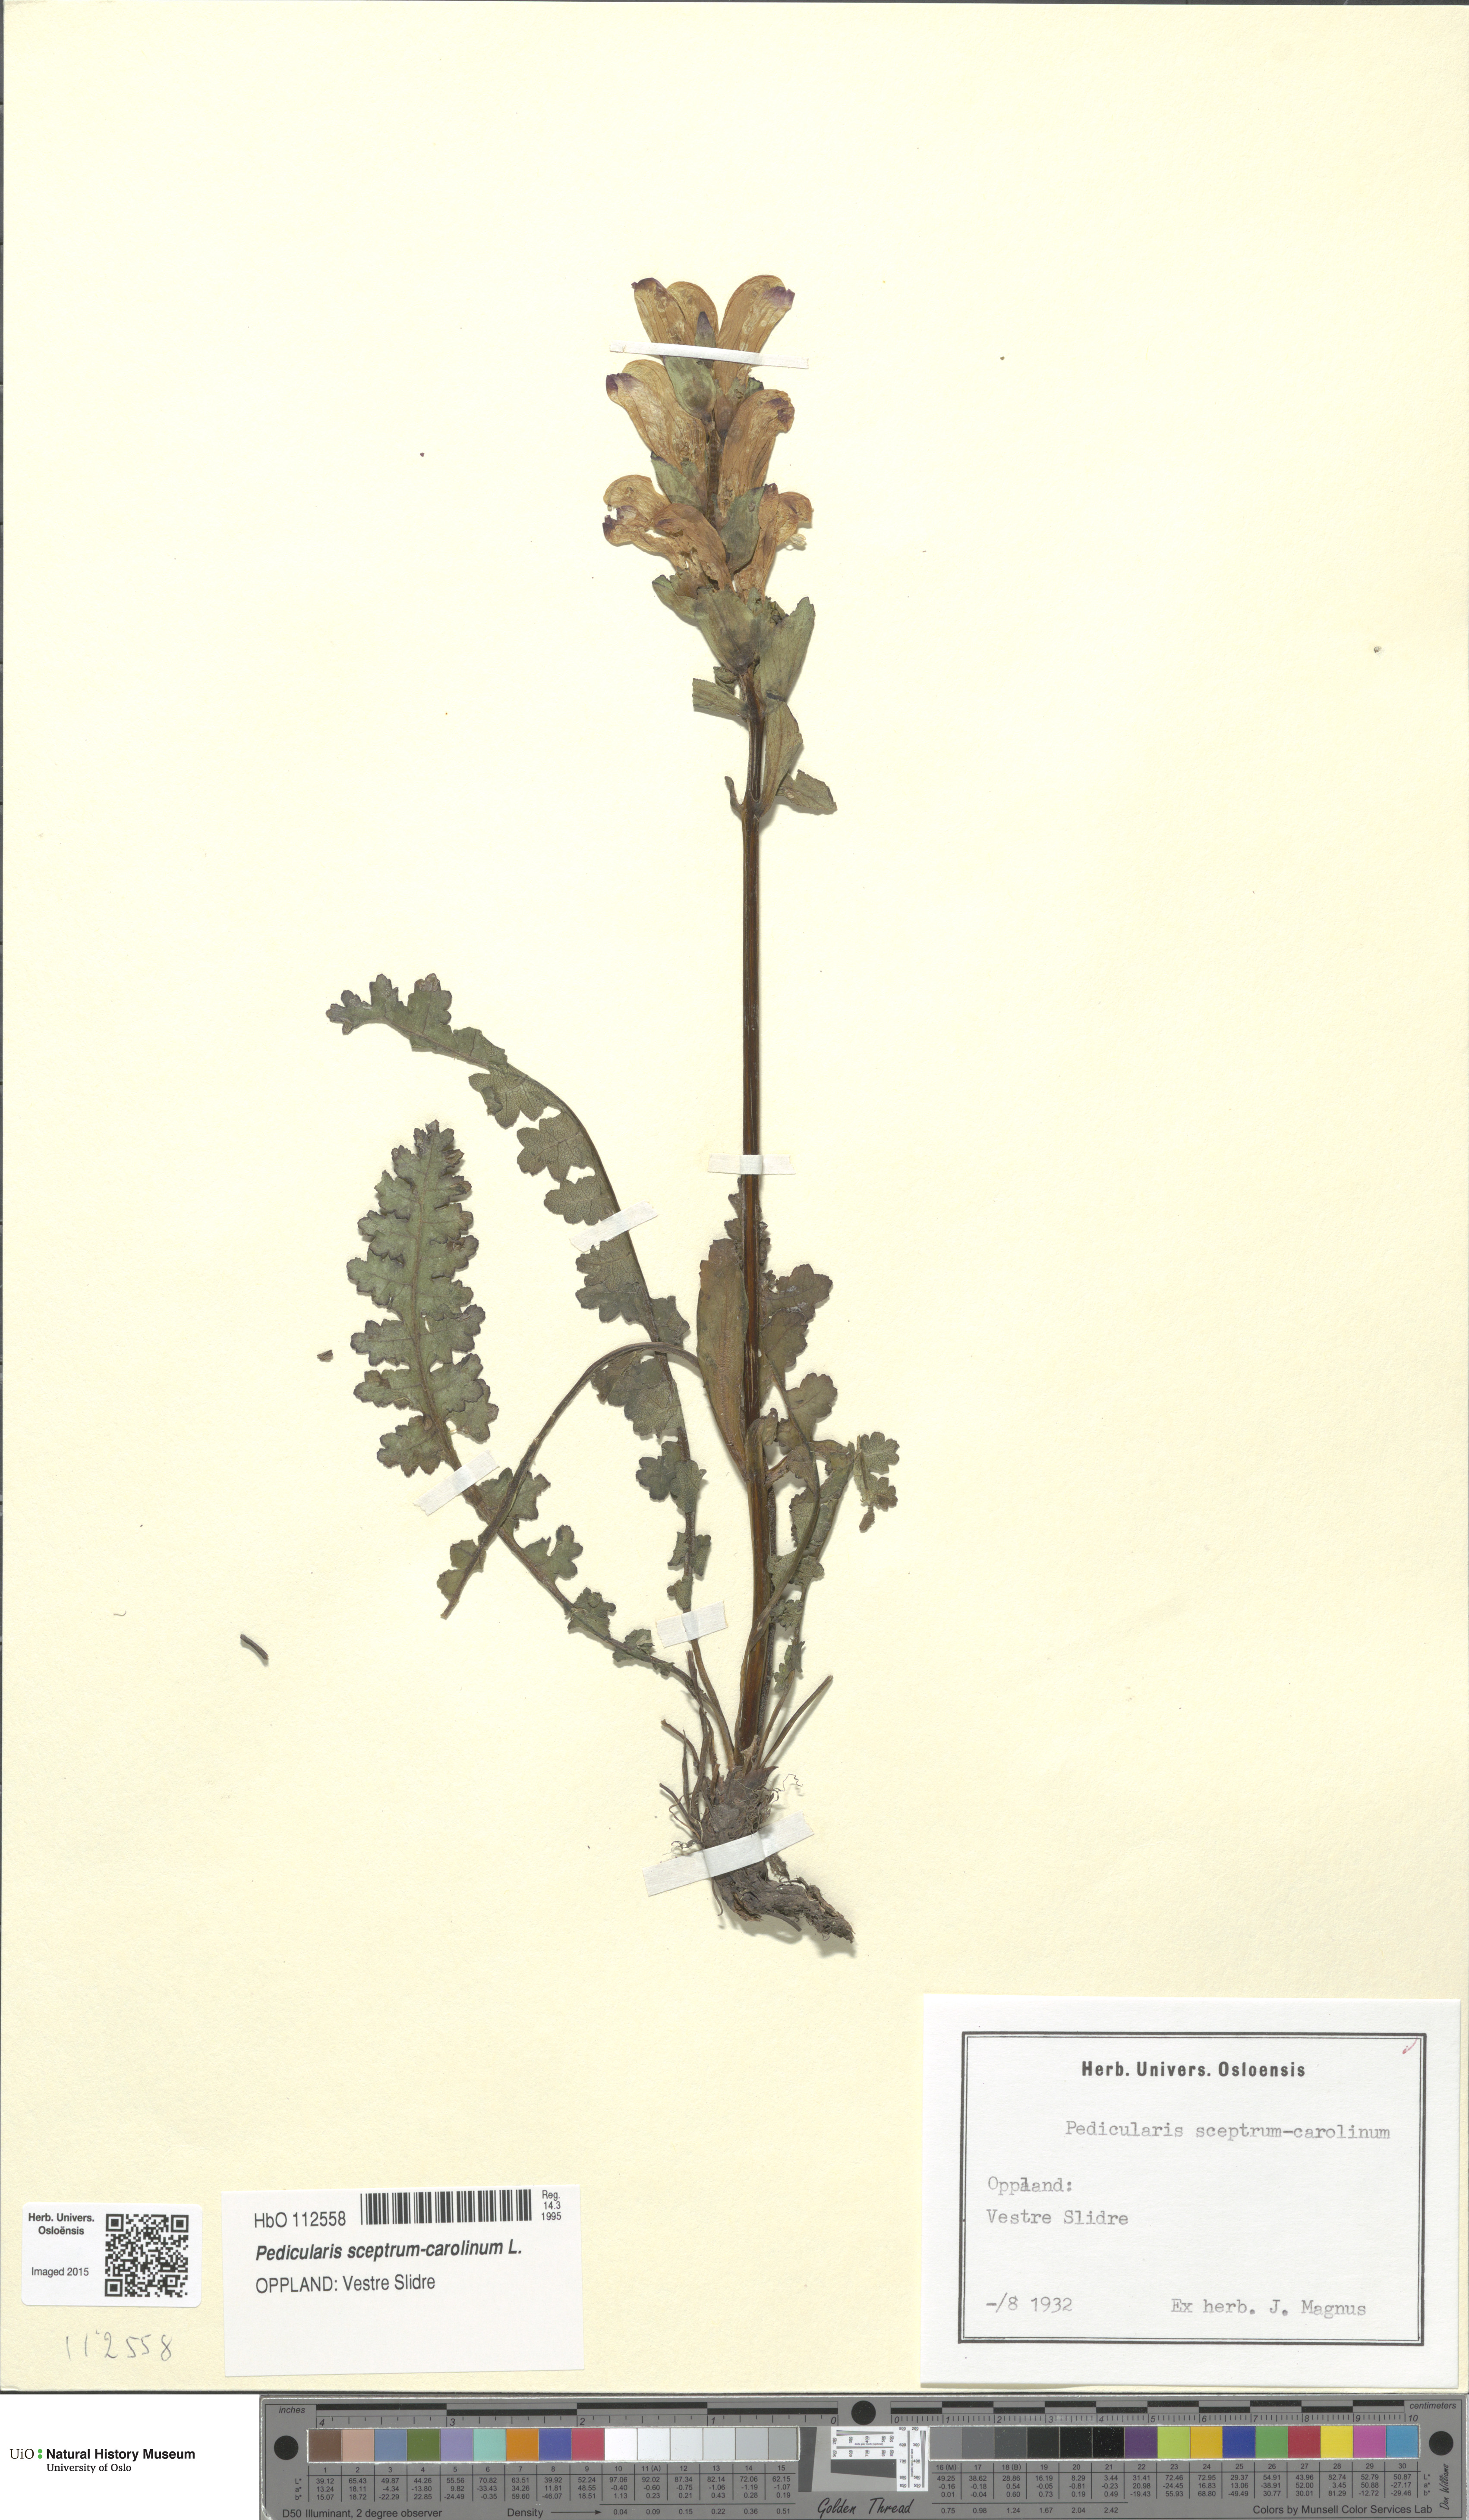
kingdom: Plantae
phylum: Tracheophyta
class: Magnoliopsida
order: Lamiales
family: Orobanchaceae
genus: Pedicularis
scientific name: Pedicularis sceptrum-carolinum
